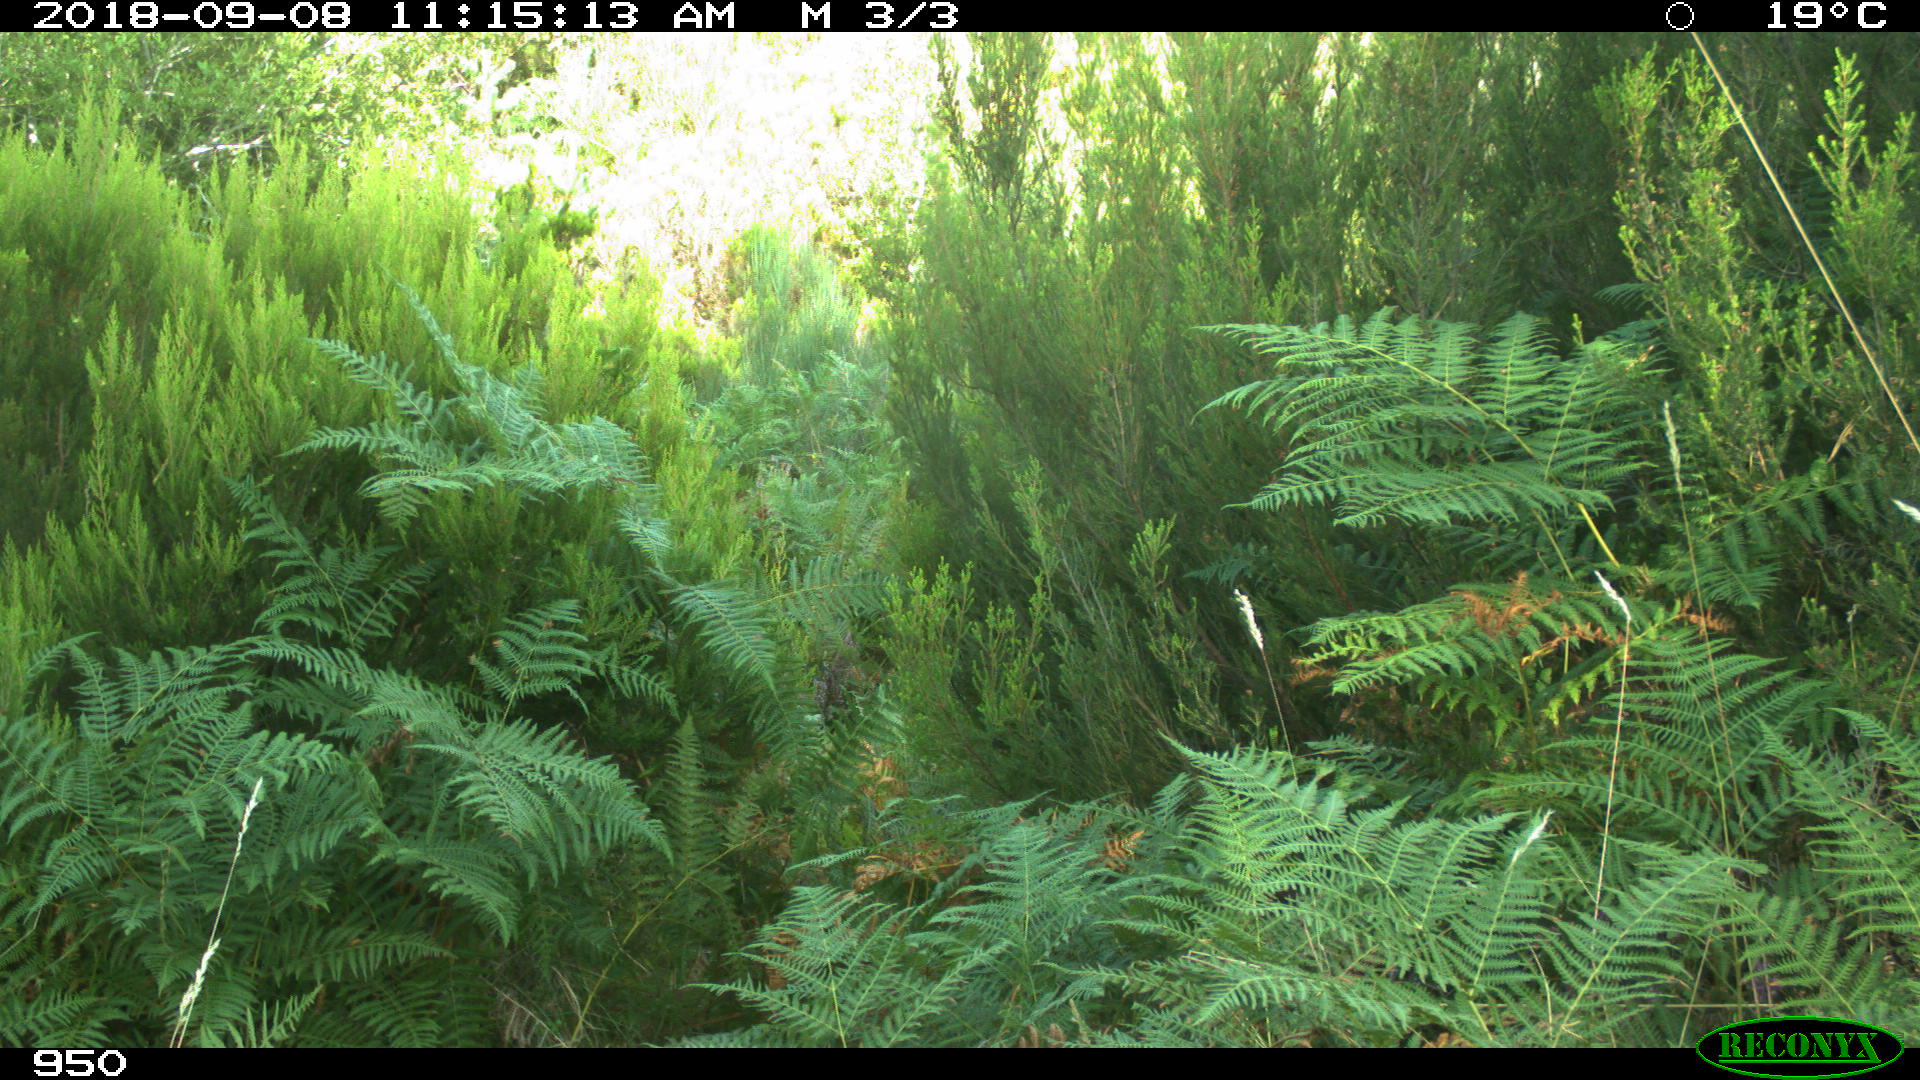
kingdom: Animalia
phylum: Chordata
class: Mammalia
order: Perissodactyla
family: Equidae
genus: Equus
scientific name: Equus caballus
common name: Horse
